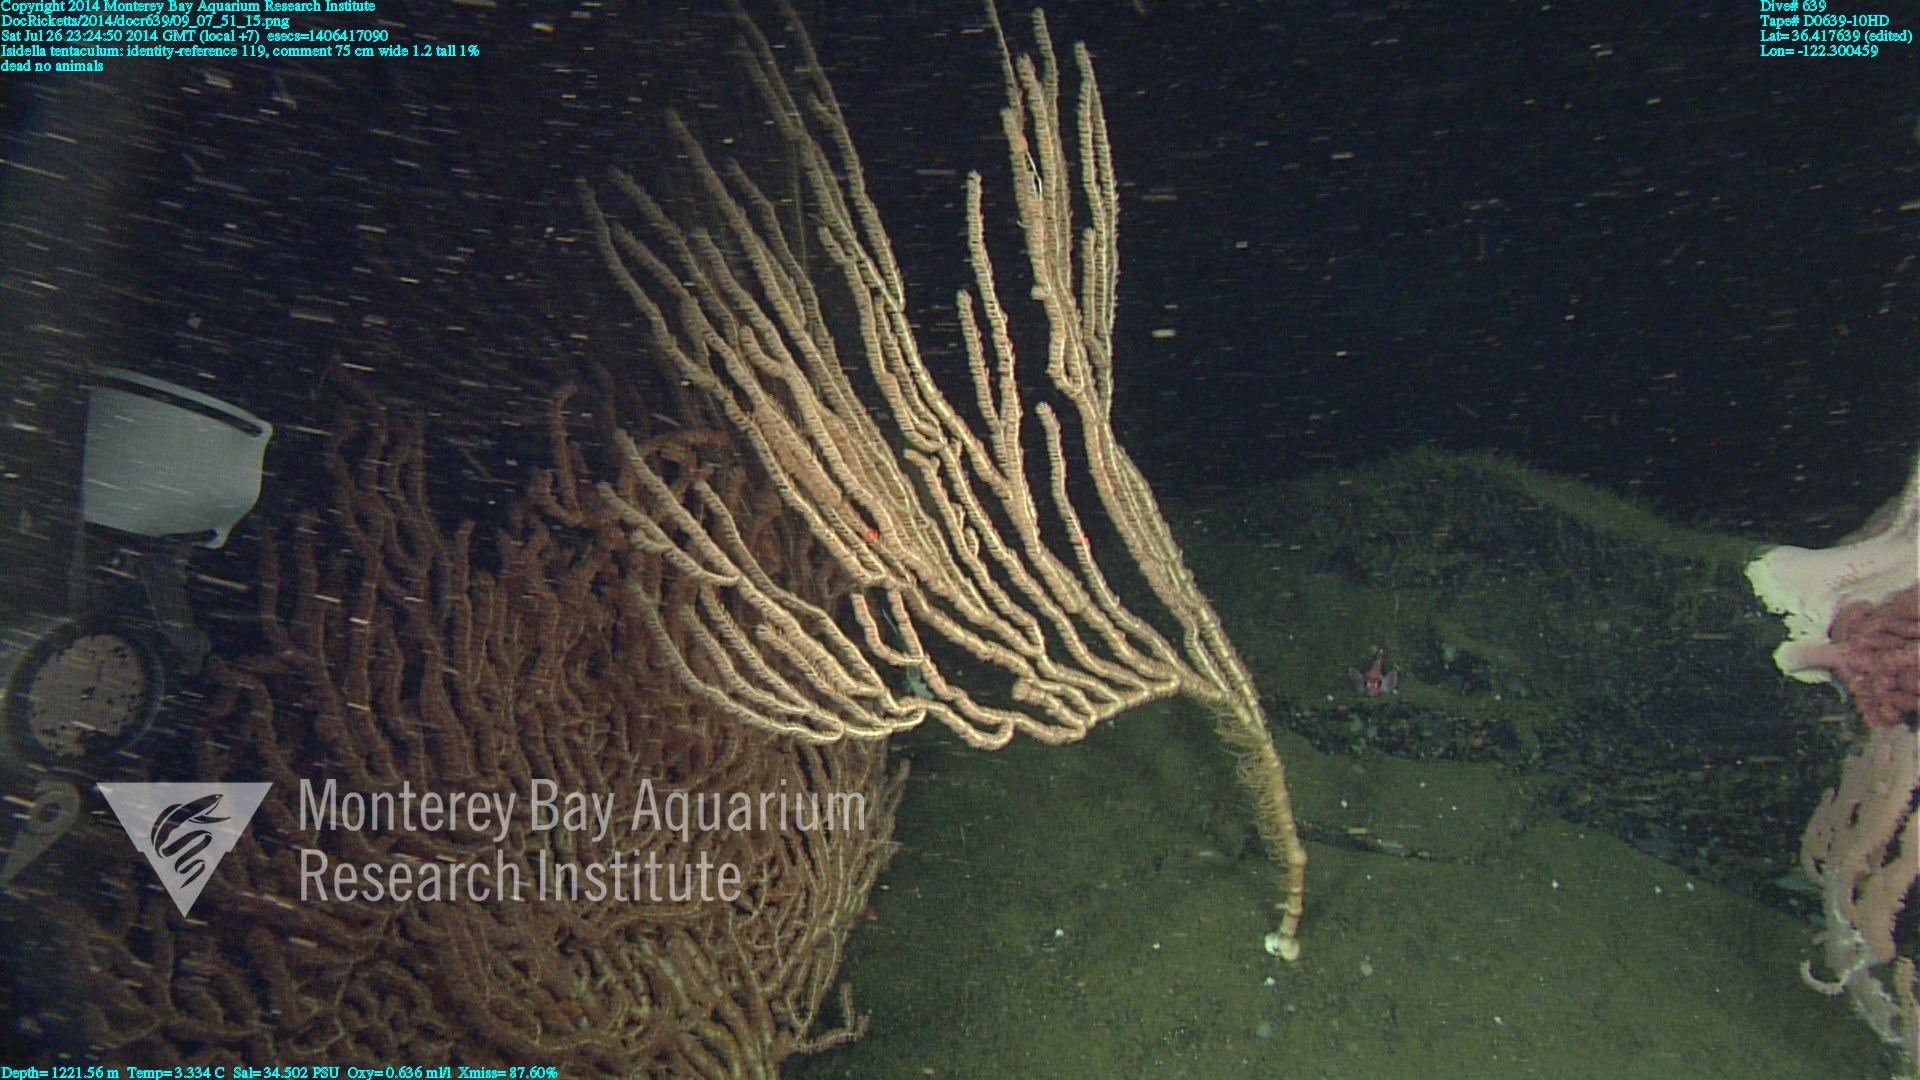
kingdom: Animalia
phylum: Cnidaria
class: Anthozoa
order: Scleralcyonacea
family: Keratoisididae
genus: Isidella
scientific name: Isidella tentaculum
